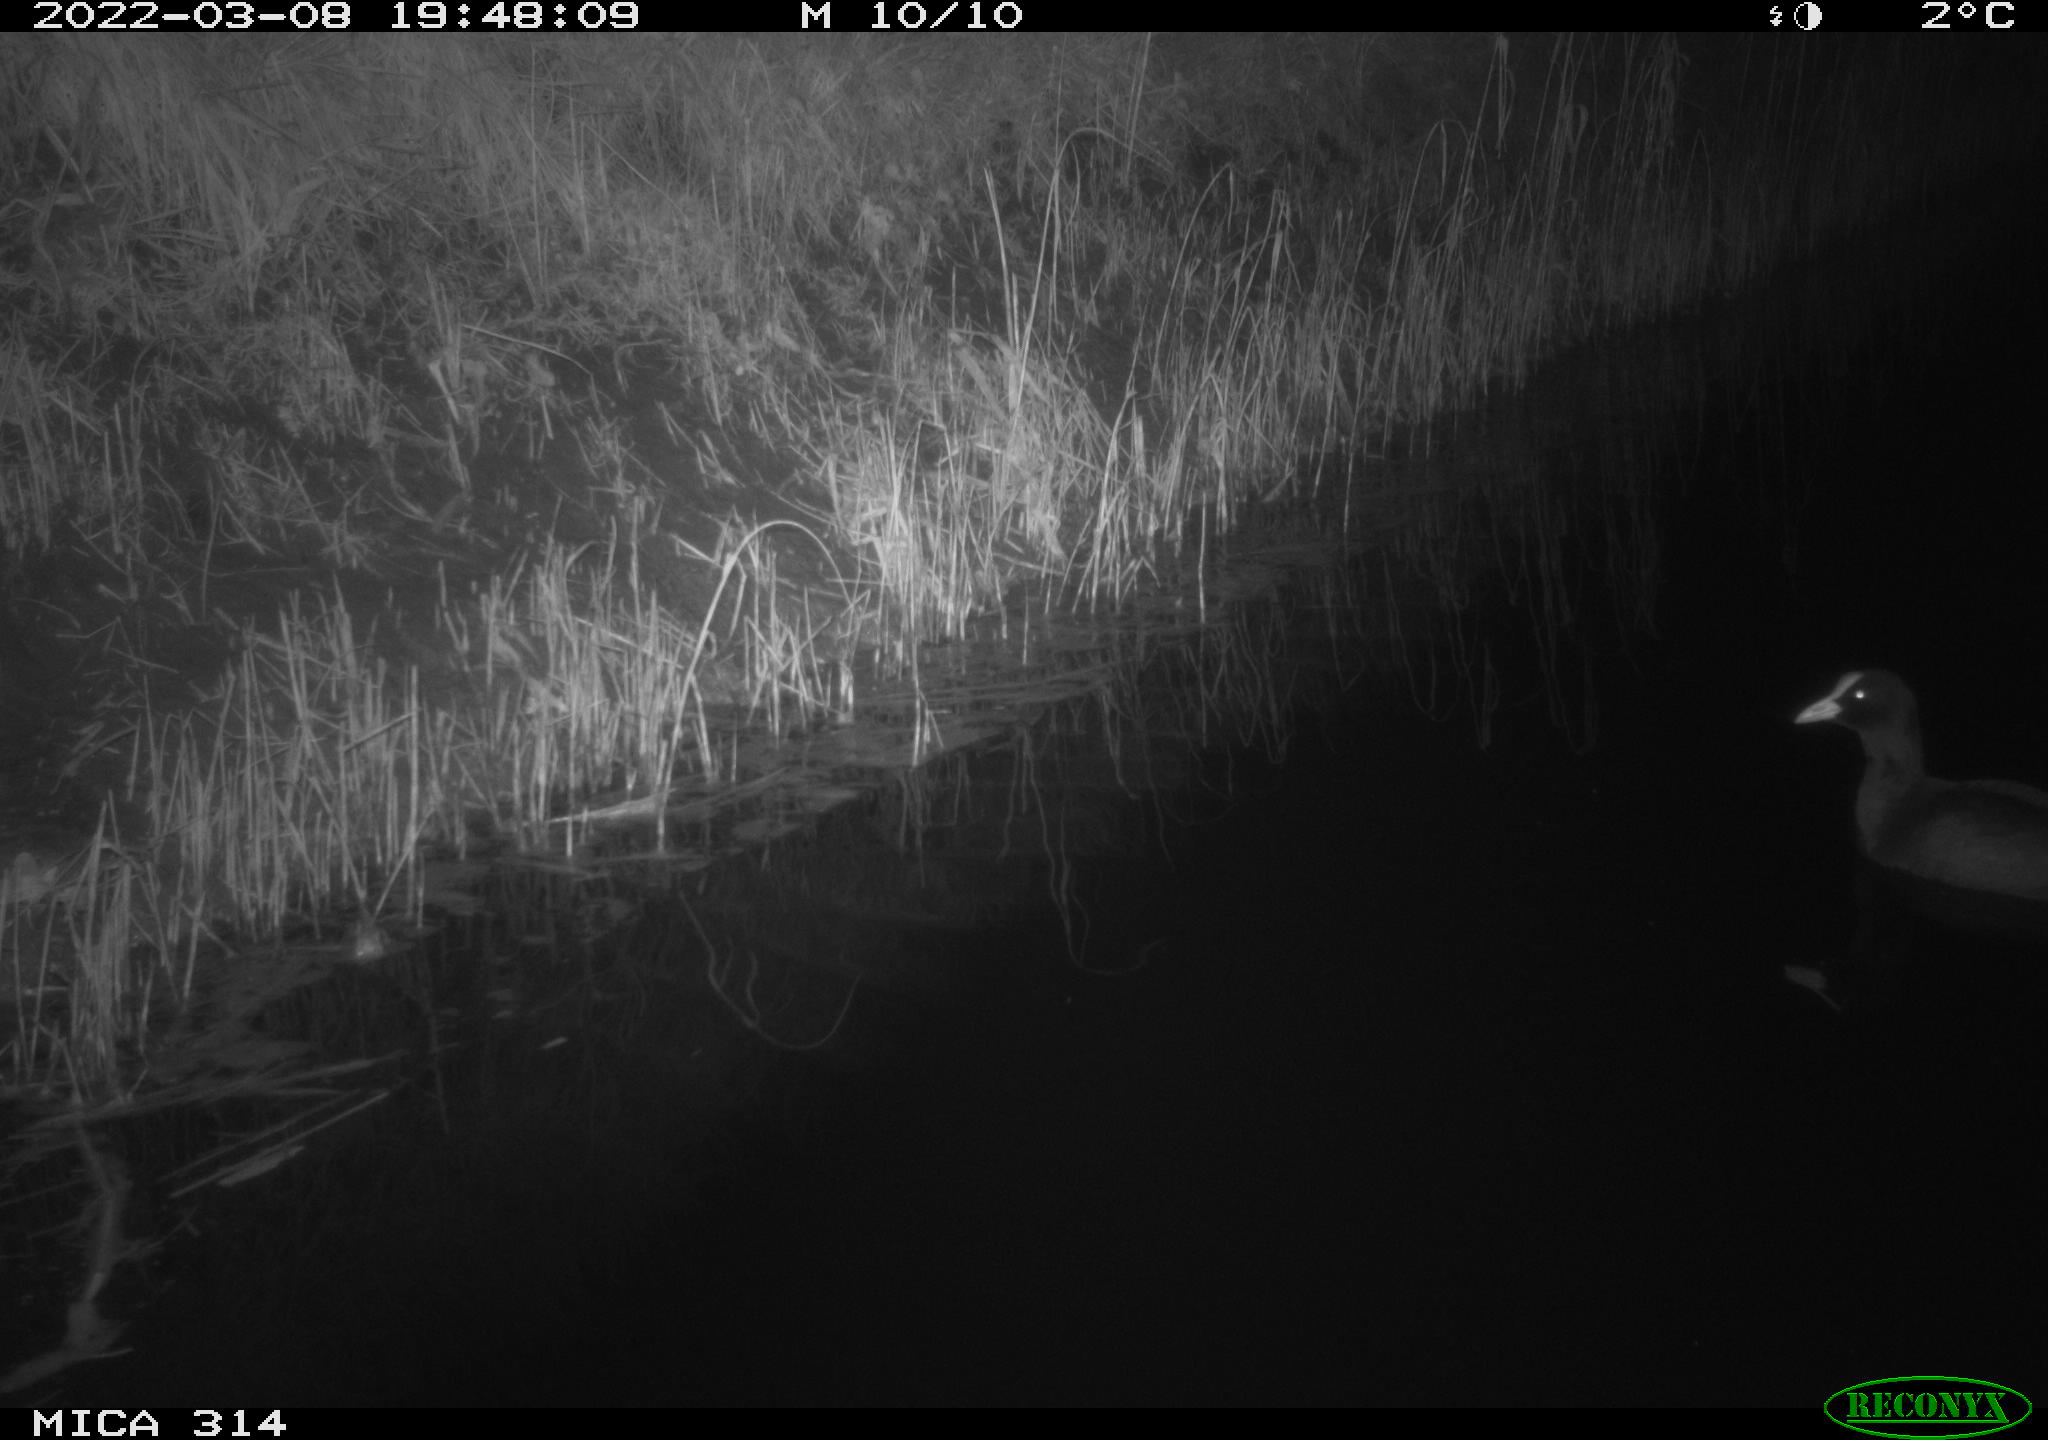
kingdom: Animalia
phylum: Chordata
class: Aves
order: Gruiformes
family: Rallidae
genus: Fulica
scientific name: Fulica atra
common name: Eurasian coot
